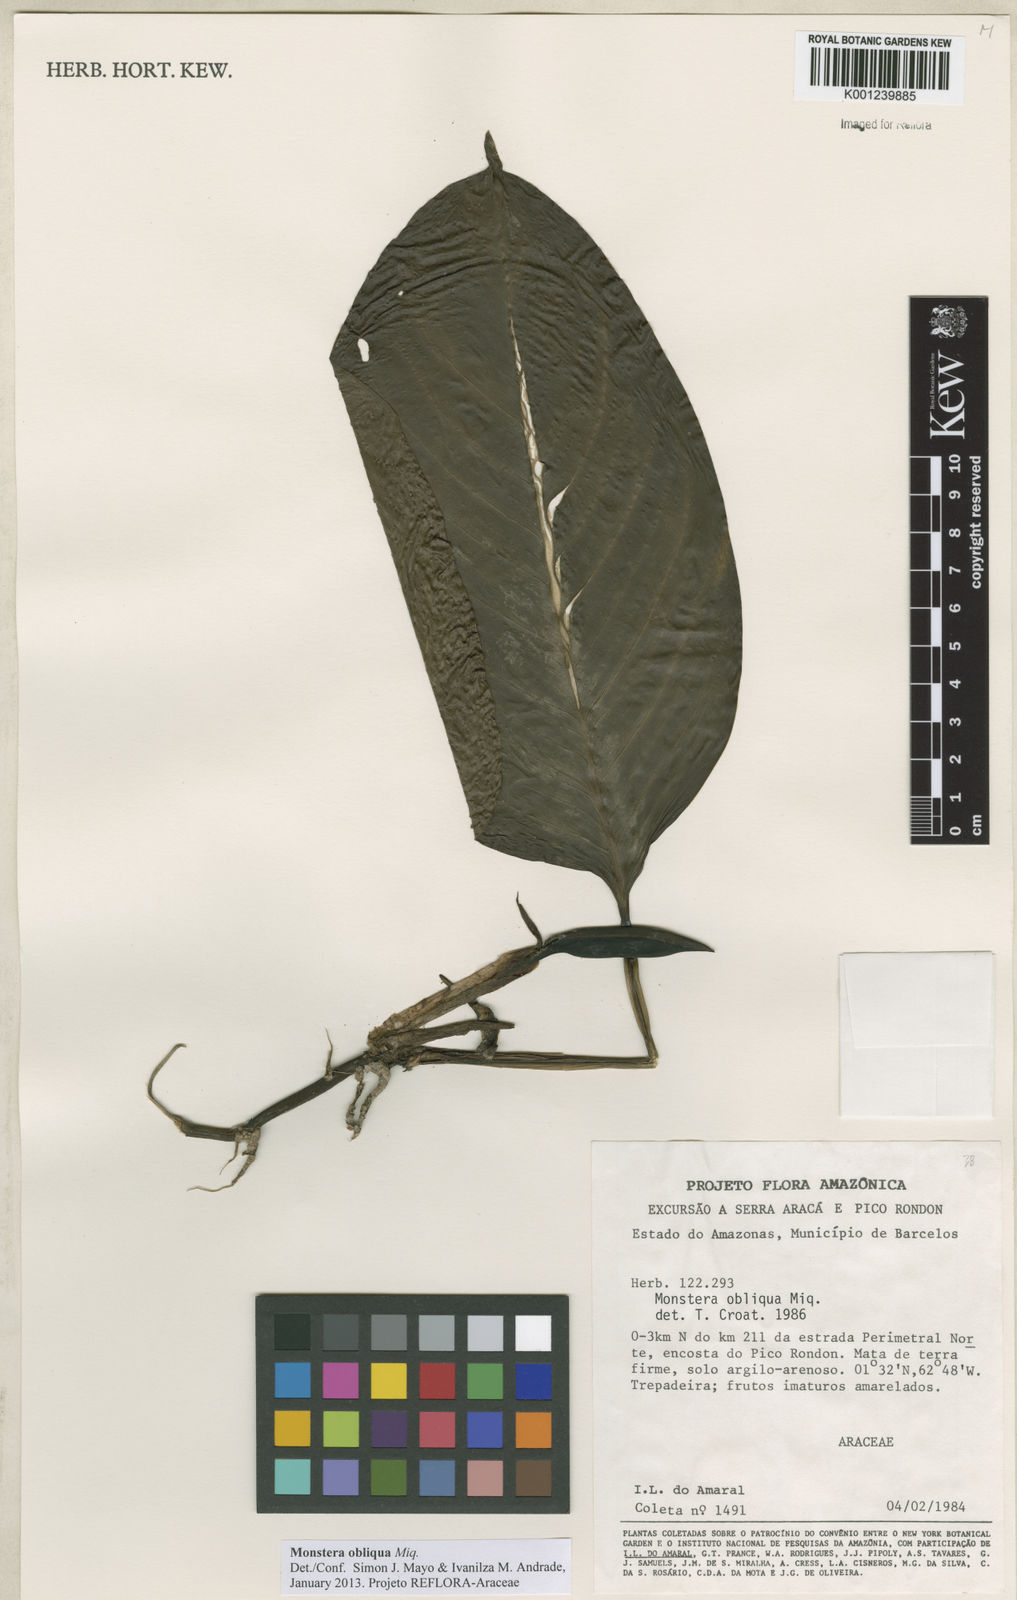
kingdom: Plantae
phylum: Tracheophyta
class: Liliopsida
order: Alismatales
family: Araceae
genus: Monstera
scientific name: Monstera obliqua
